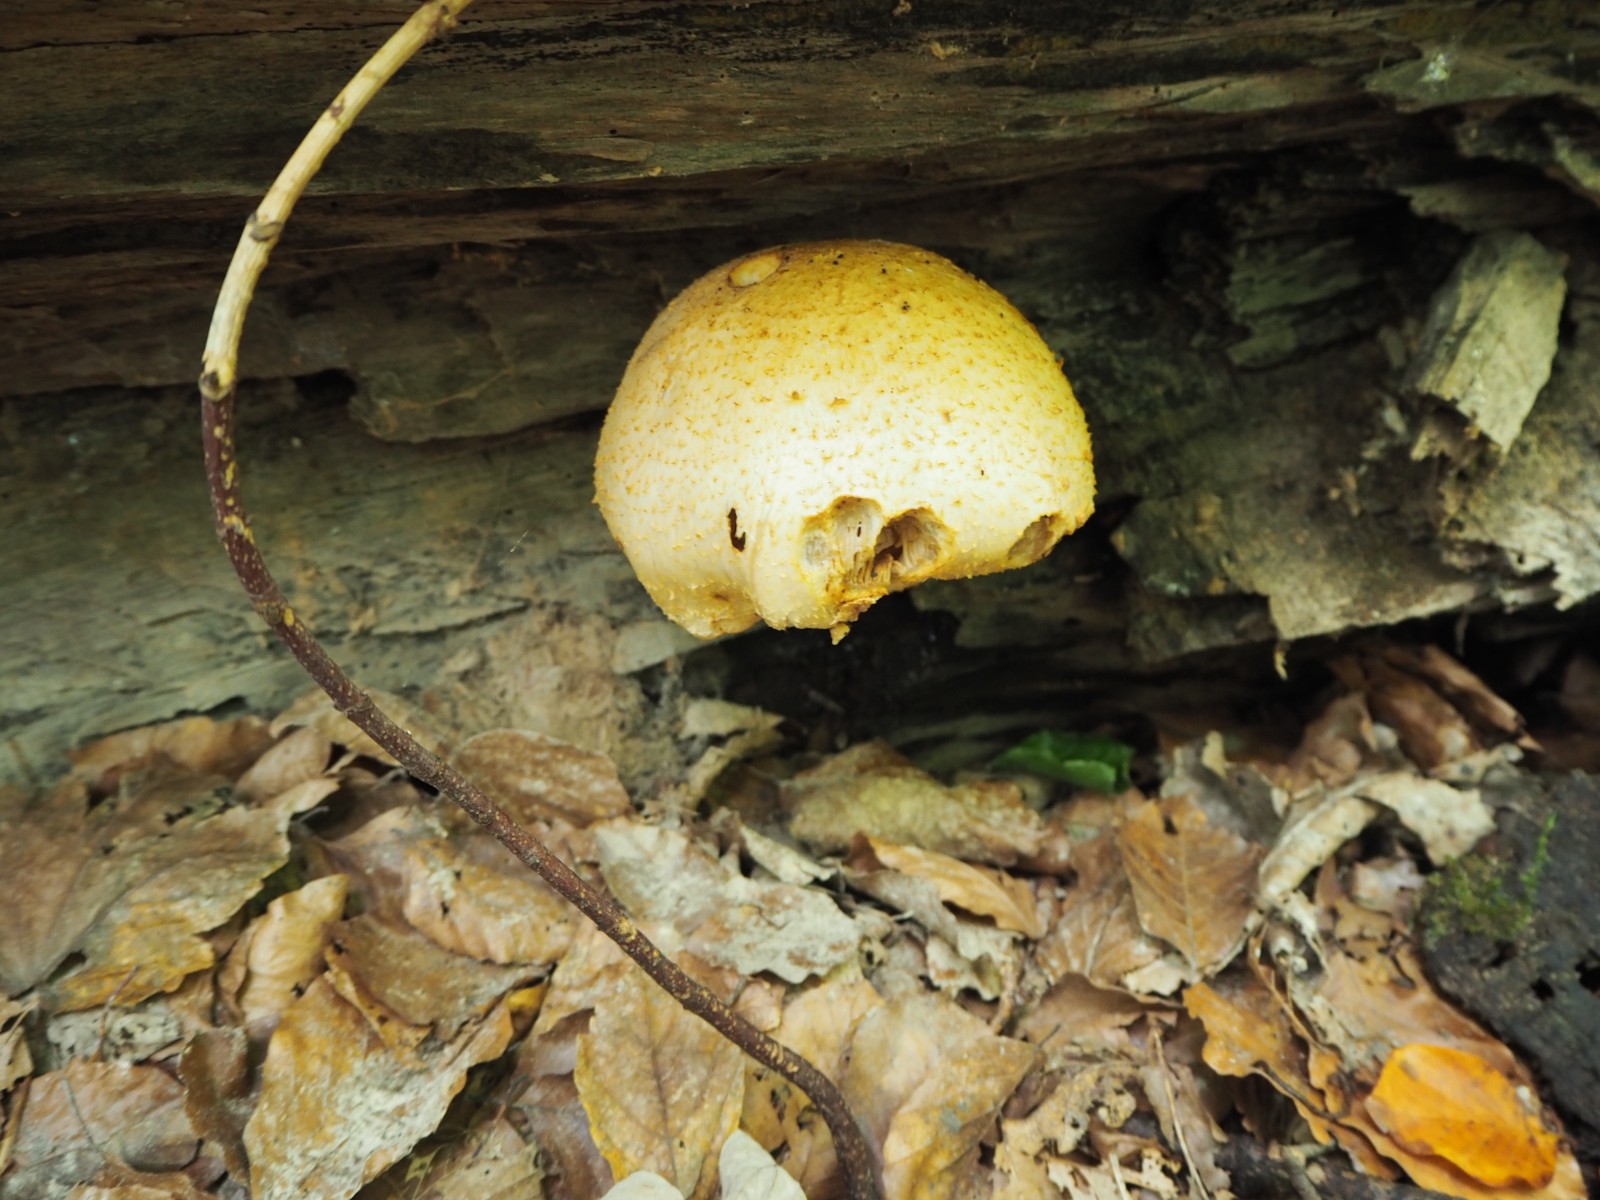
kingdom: Fungi
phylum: Basidiomycota
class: Agaricomycetes
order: Agaricales
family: Strophariaceae
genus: Pholiota
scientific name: Pholiota squarrosoides
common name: vellugtende skælhat
